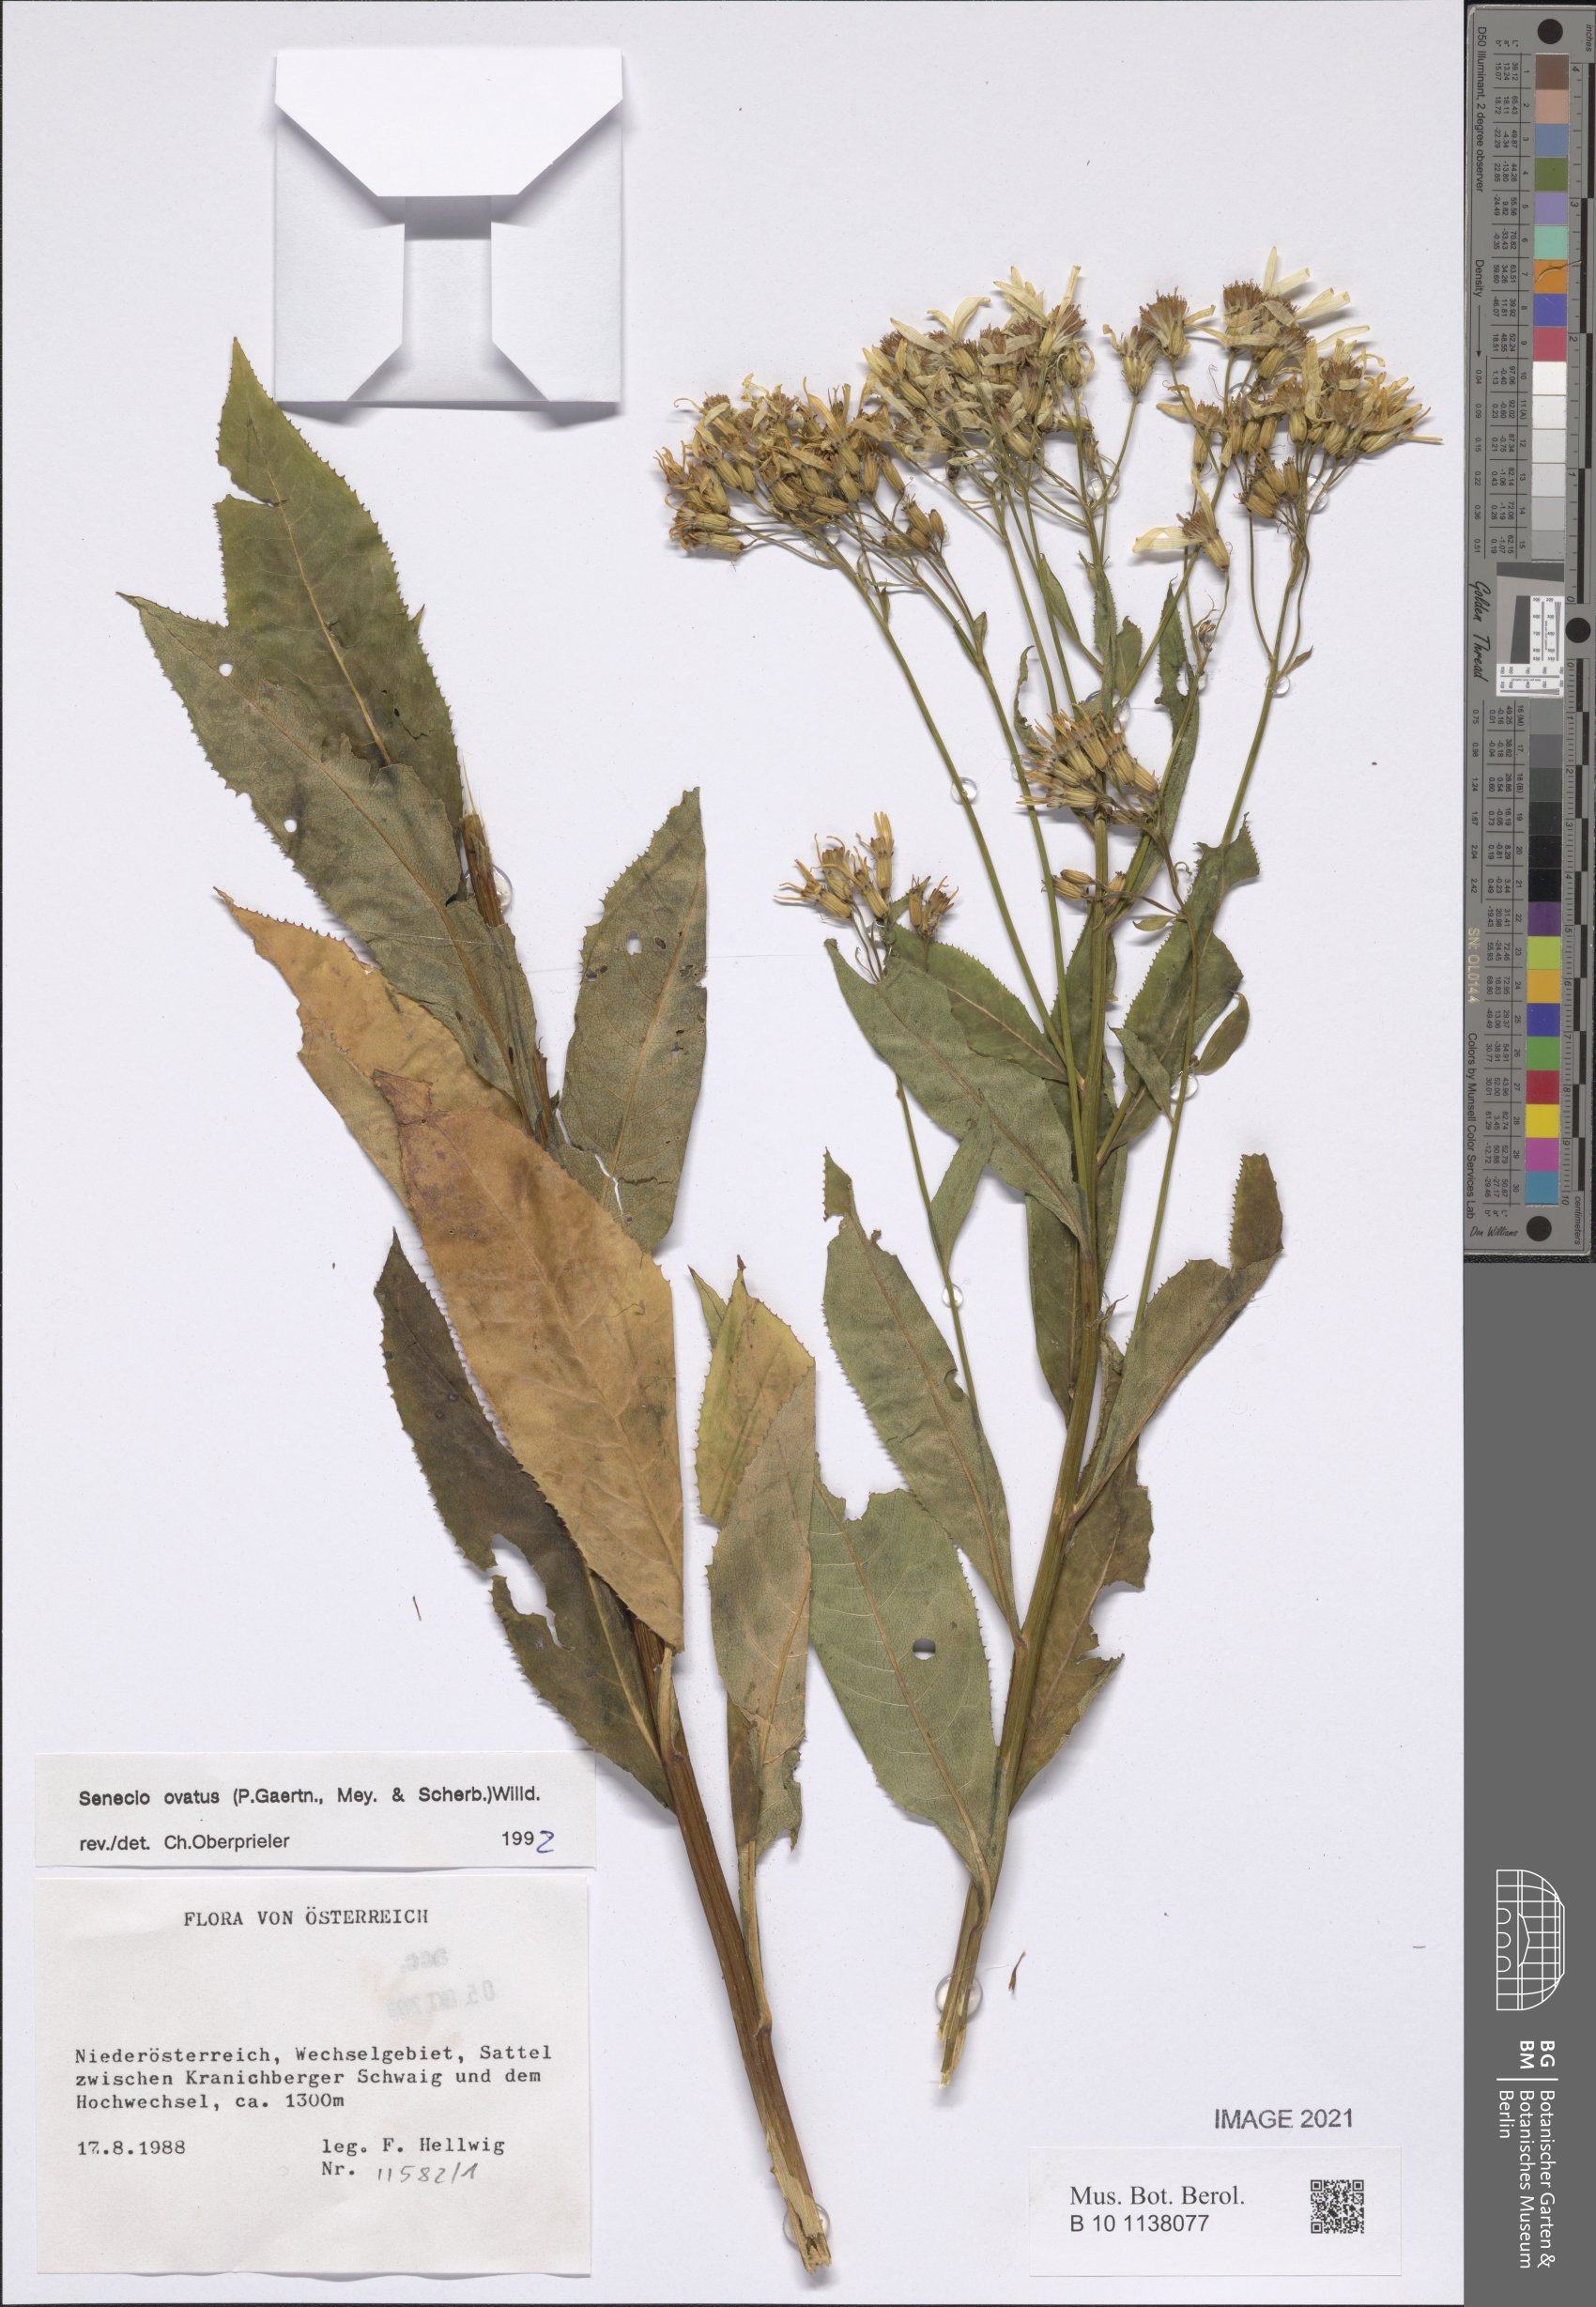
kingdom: Plantae
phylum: Tracheophyta
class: Magnoliopsida
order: Asterales
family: Asteraceae
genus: Senecio
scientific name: Senecio ovatus
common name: Wood ragwort
